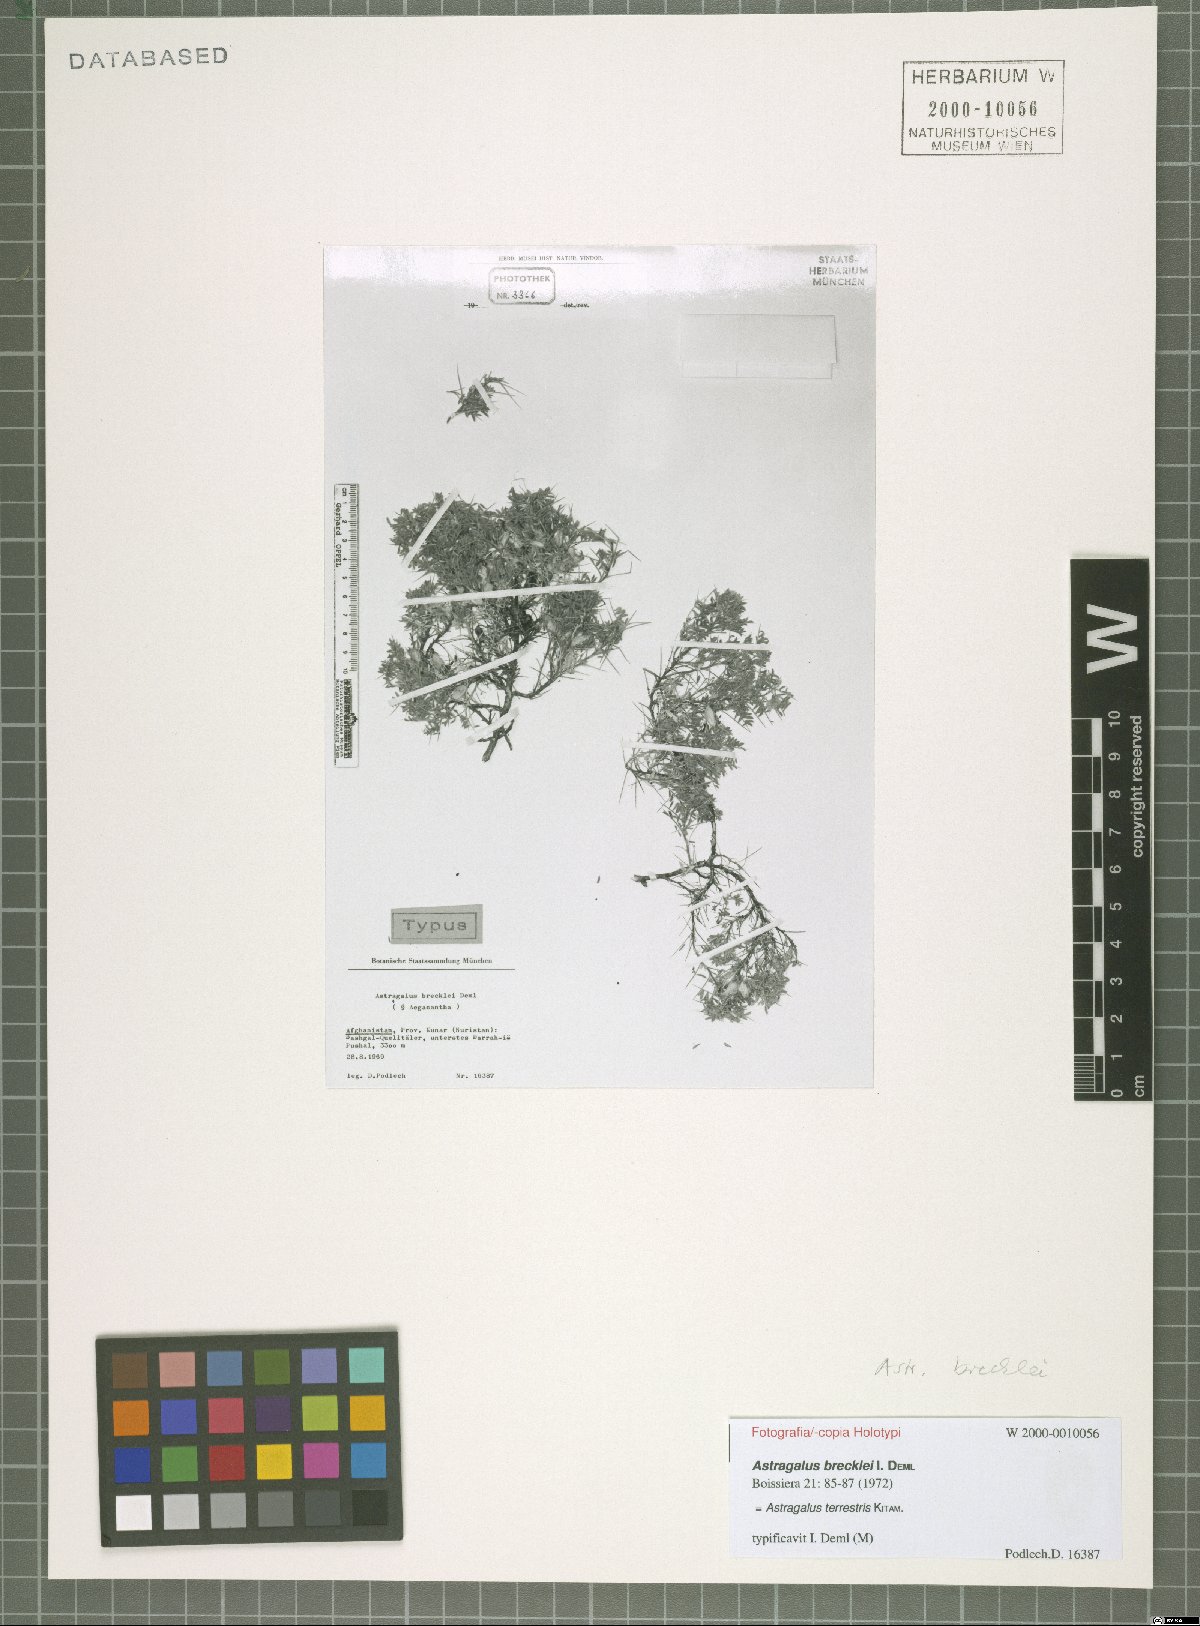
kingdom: Plantae
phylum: Tracheophyta
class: Magnoliopsida
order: Fabales
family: Fabaceae
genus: Astragalus
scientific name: Astragalus terrestris
